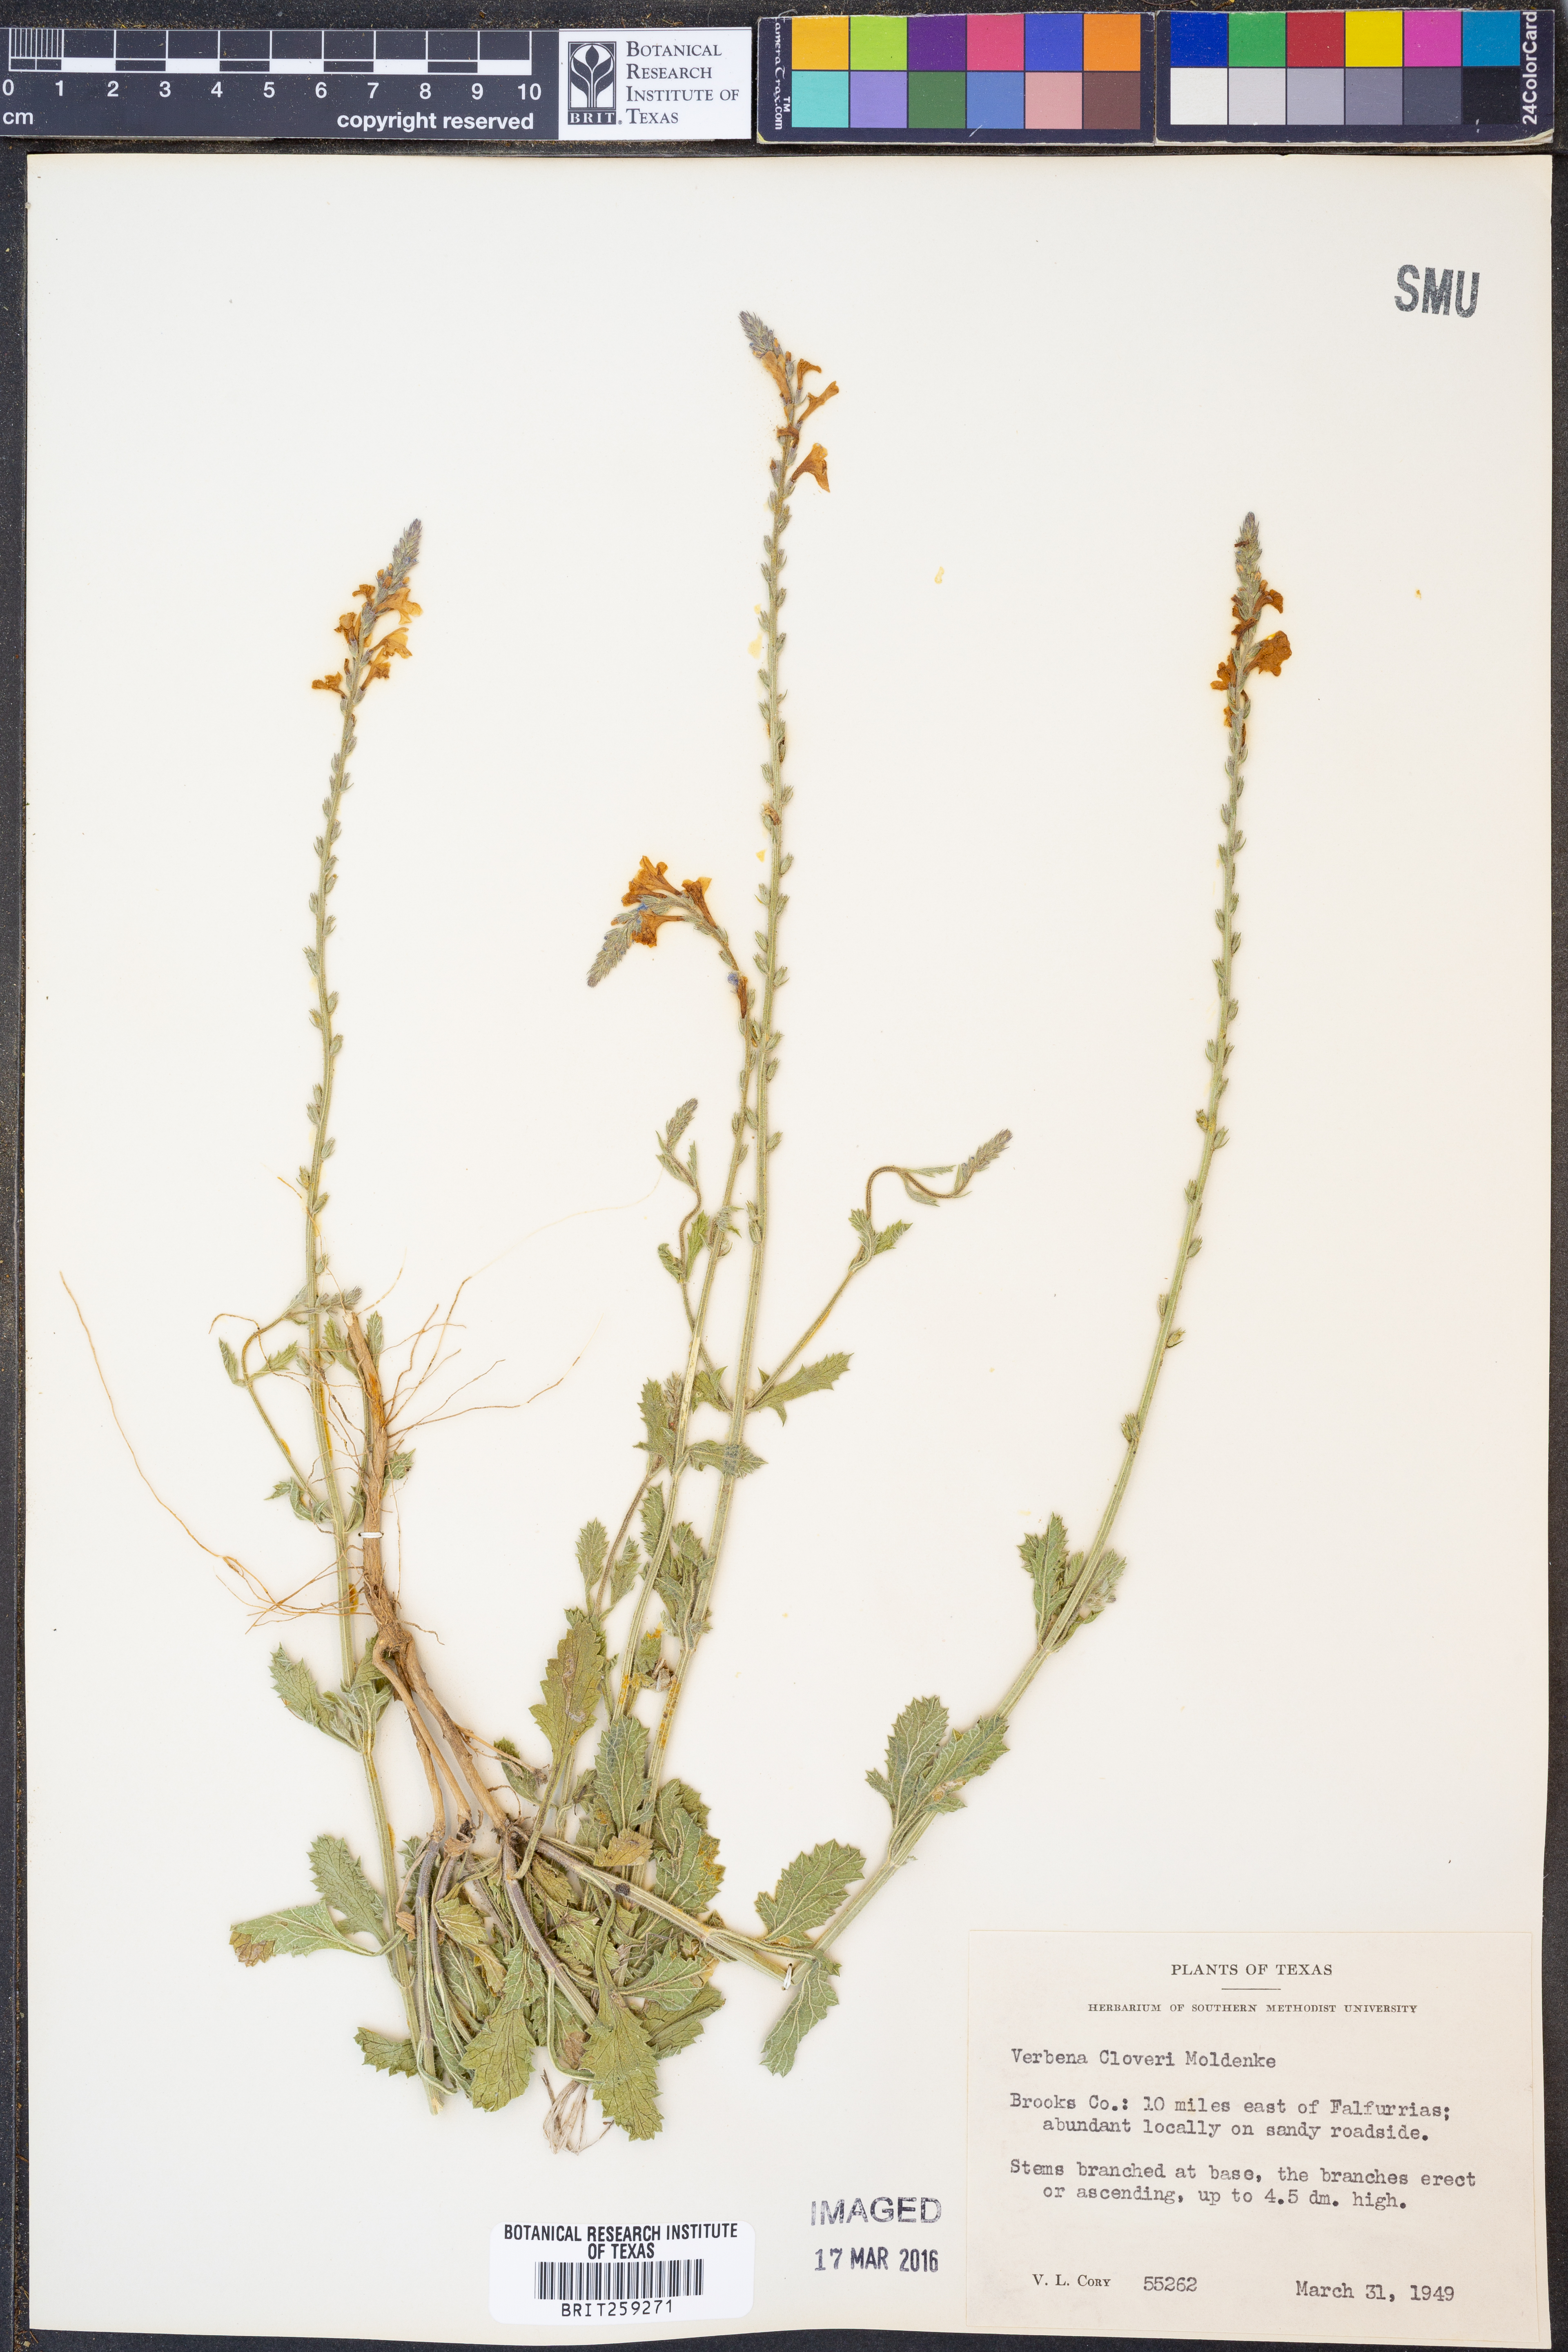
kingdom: Plantae
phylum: Tracheophyta
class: Magnoliopsida
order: Lamiales
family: Verbenaceae
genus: Verbena
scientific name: Verbena cloveri
